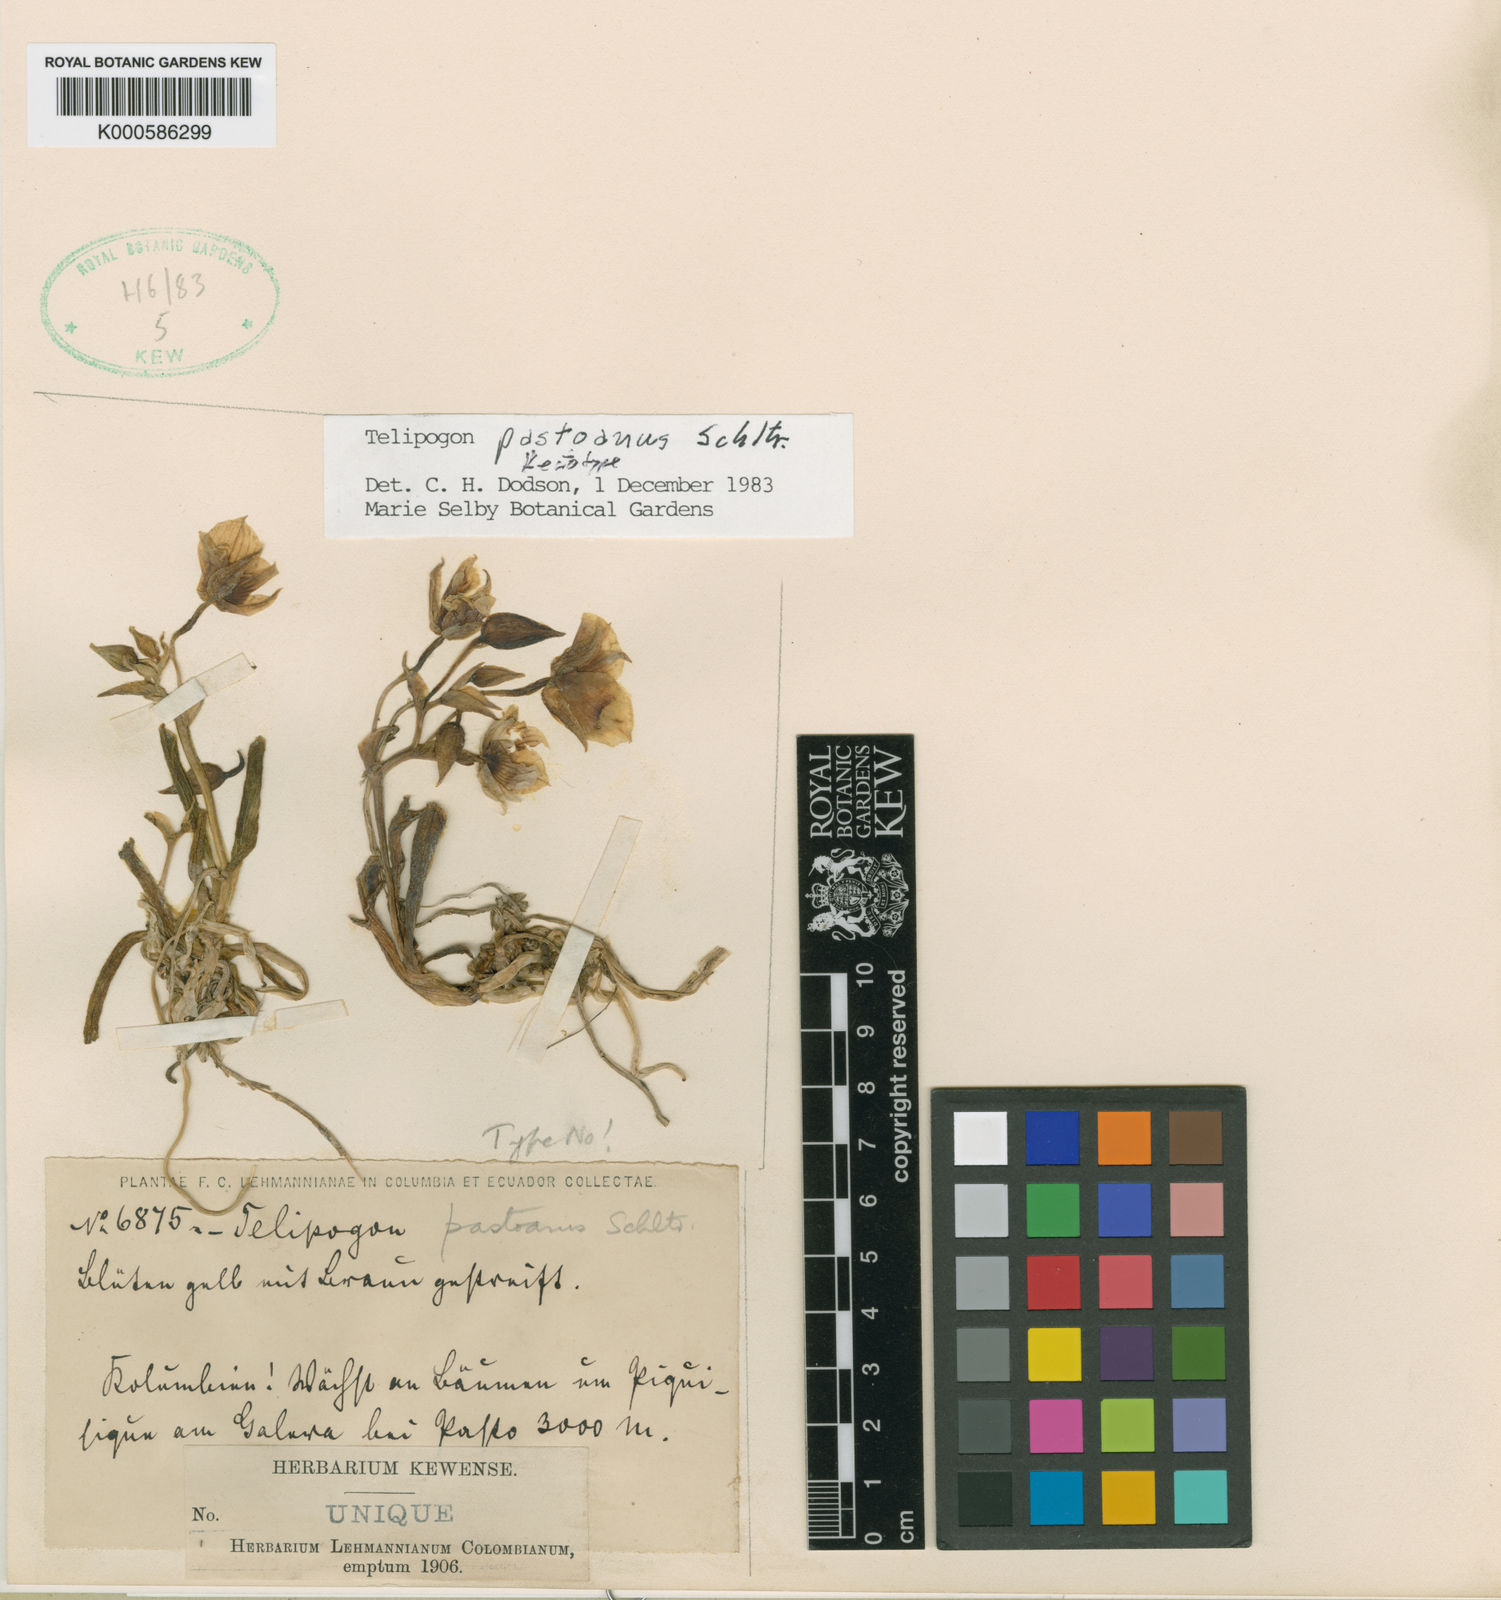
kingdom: Plantae
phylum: Tracheophyta
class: Liliopsida
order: Asparagales
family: Orchidaceae
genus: Telipogon
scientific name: Telipogon pastoanus
